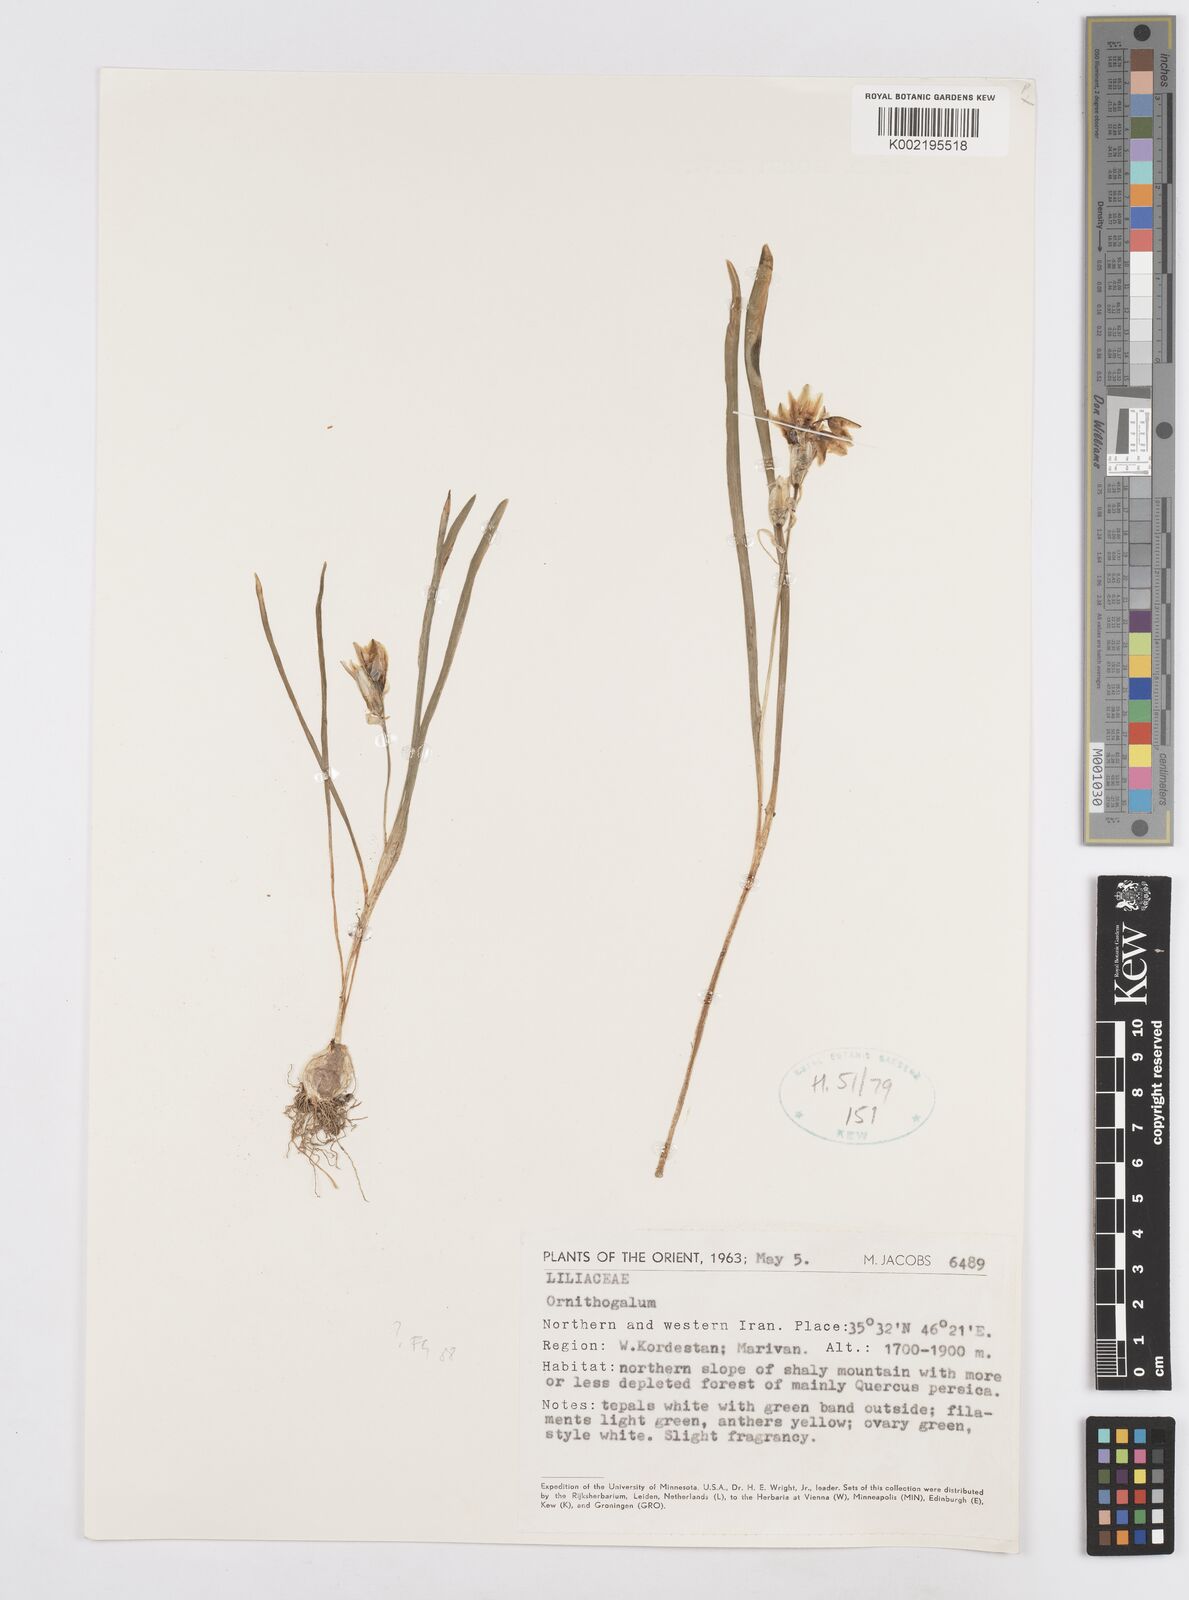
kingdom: Plantae
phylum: Tracheophyta
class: Liliopsida
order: Asparagales
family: Asparagaceae
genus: Ornithogalum
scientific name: Ornithogalum
